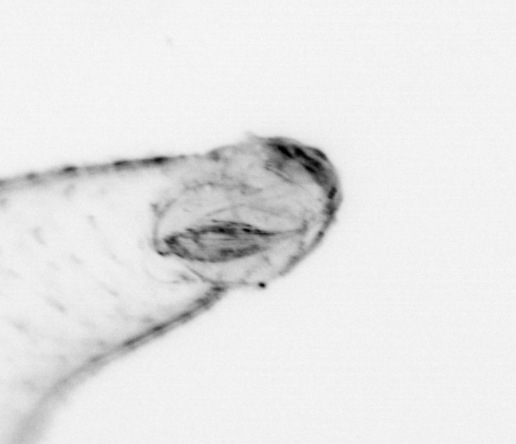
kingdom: Animalia
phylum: Chaetognatha
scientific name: Chaetognatha
